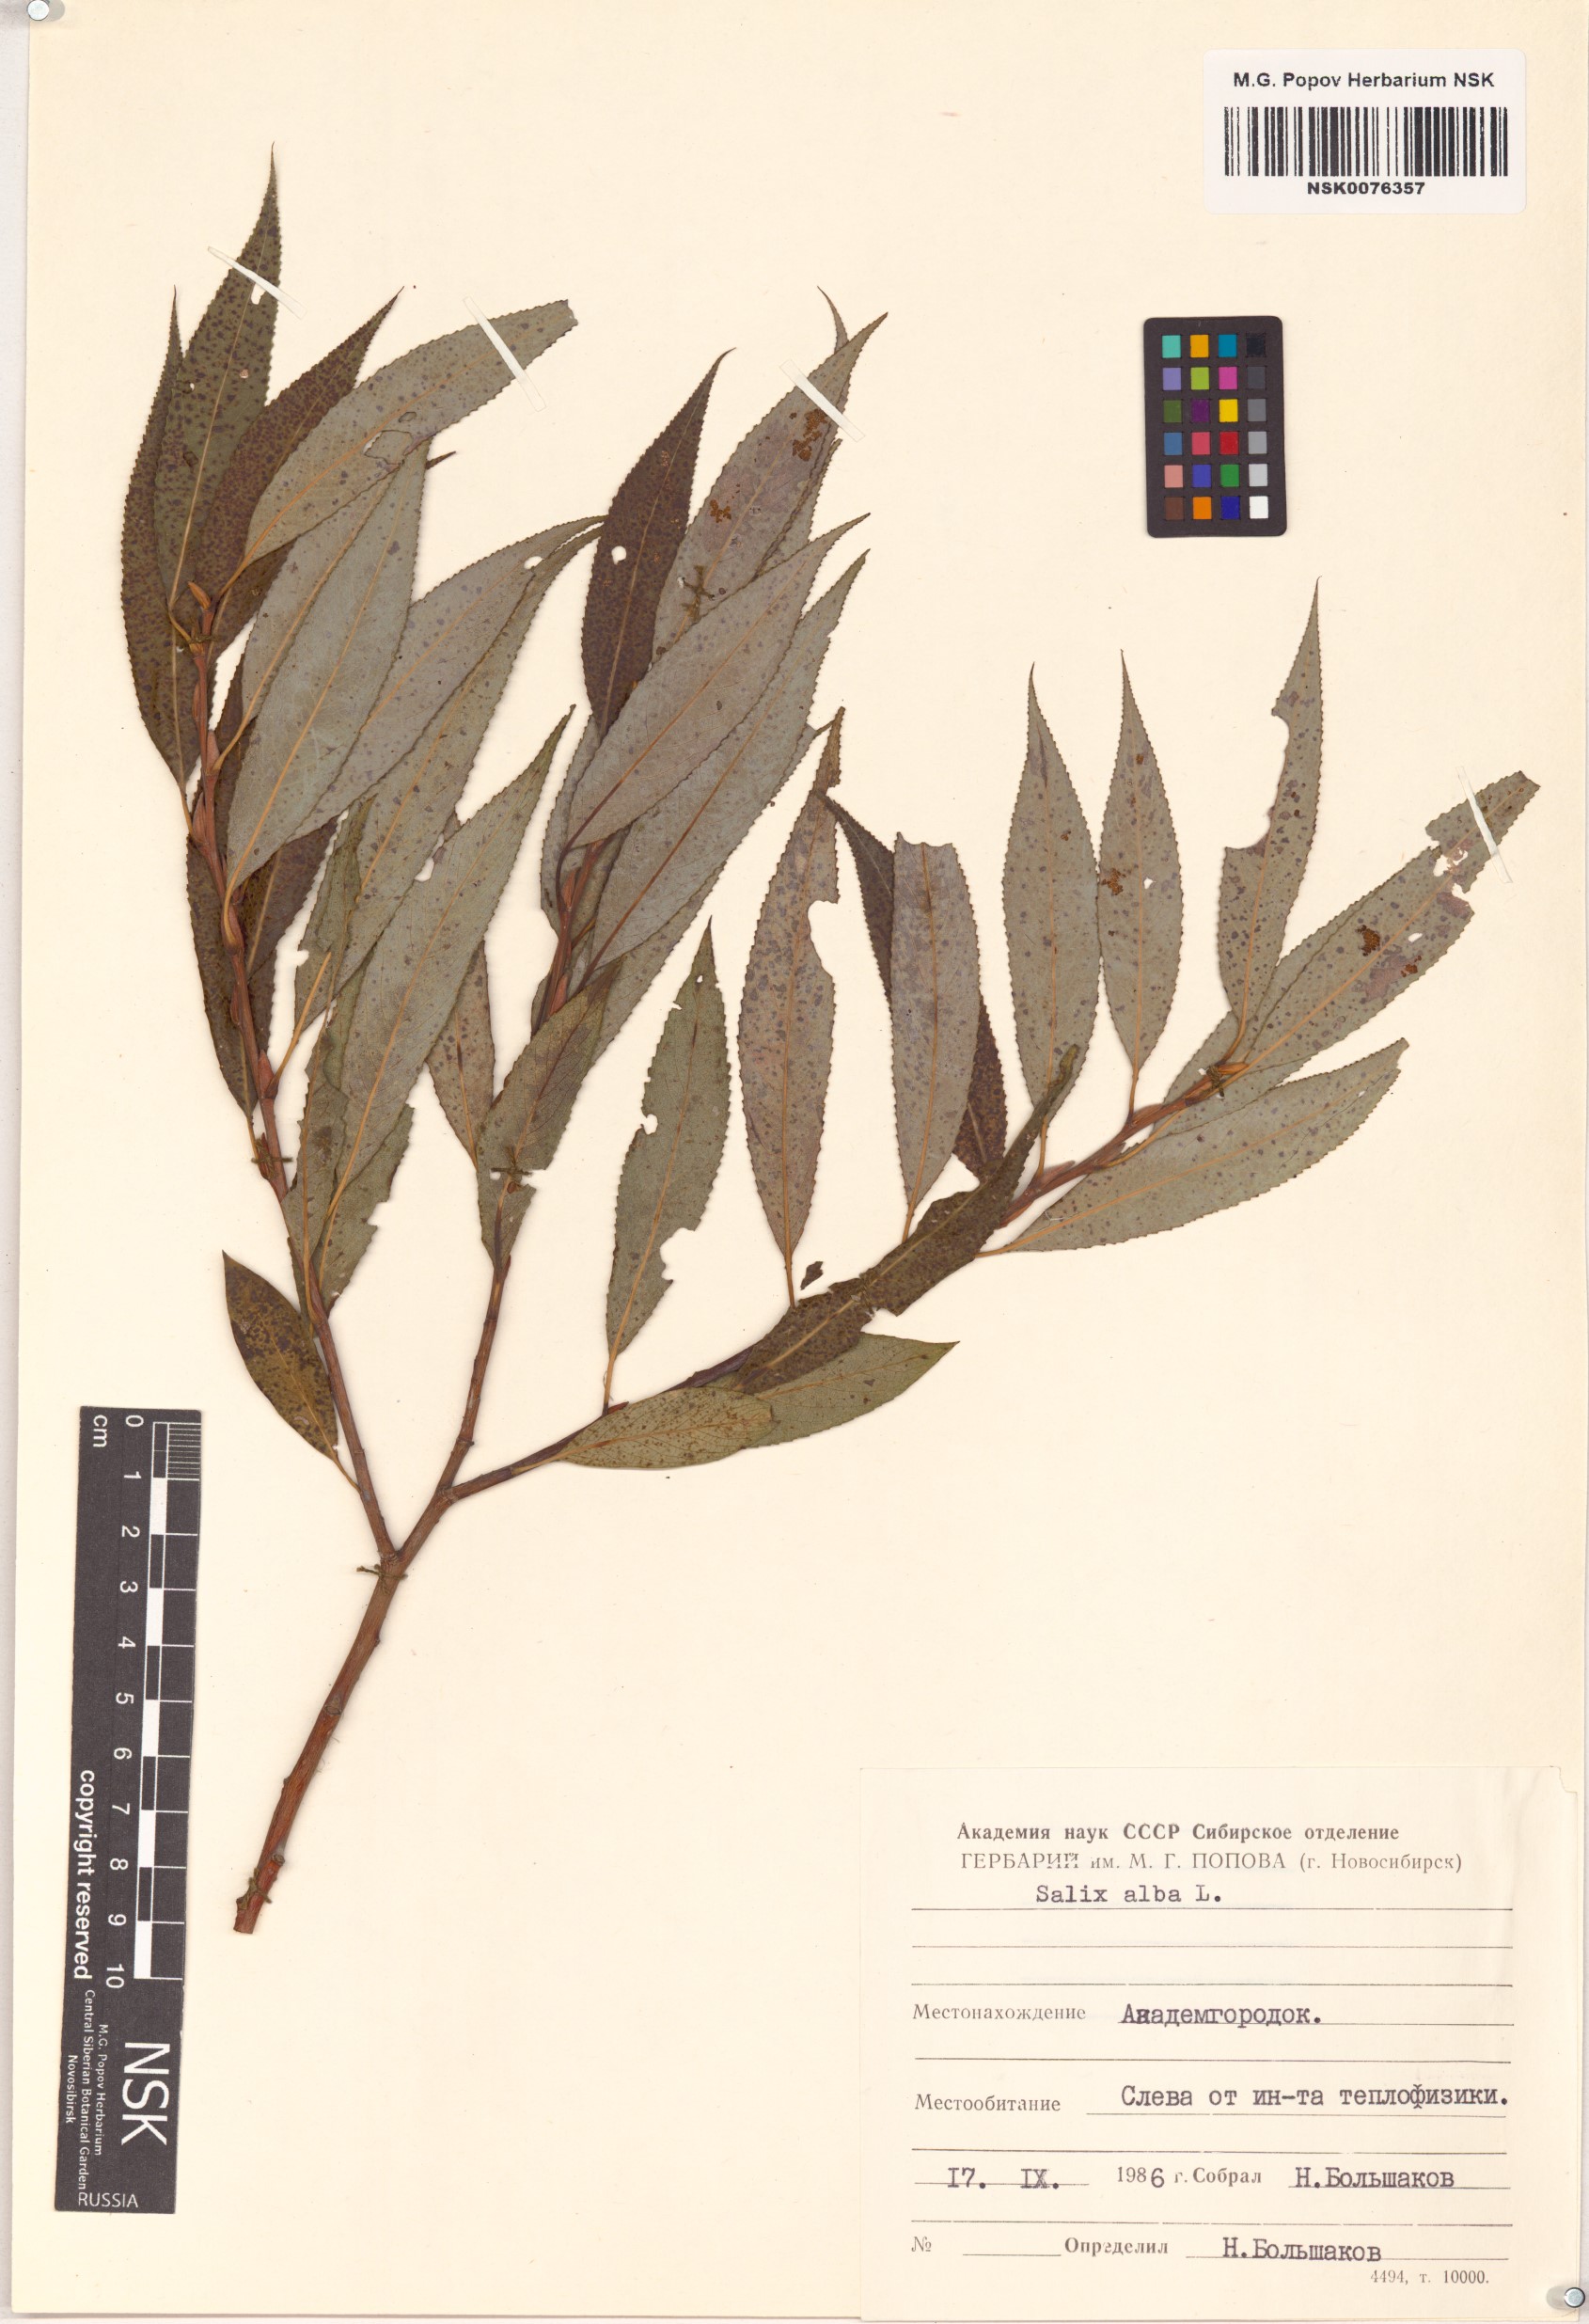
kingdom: Plantae
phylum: Tracheophyta
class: Magnoliopsida
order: Malpighiales
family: Salicaceae
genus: Salix
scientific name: Salix alba
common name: White willow
